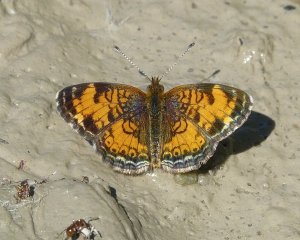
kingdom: Animalia
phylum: Arthropoda
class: Insecta
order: Lepidoptera
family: Nymphalidae
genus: Phyciodes
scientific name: Phyciodes tharos
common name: Pearl Crescent
